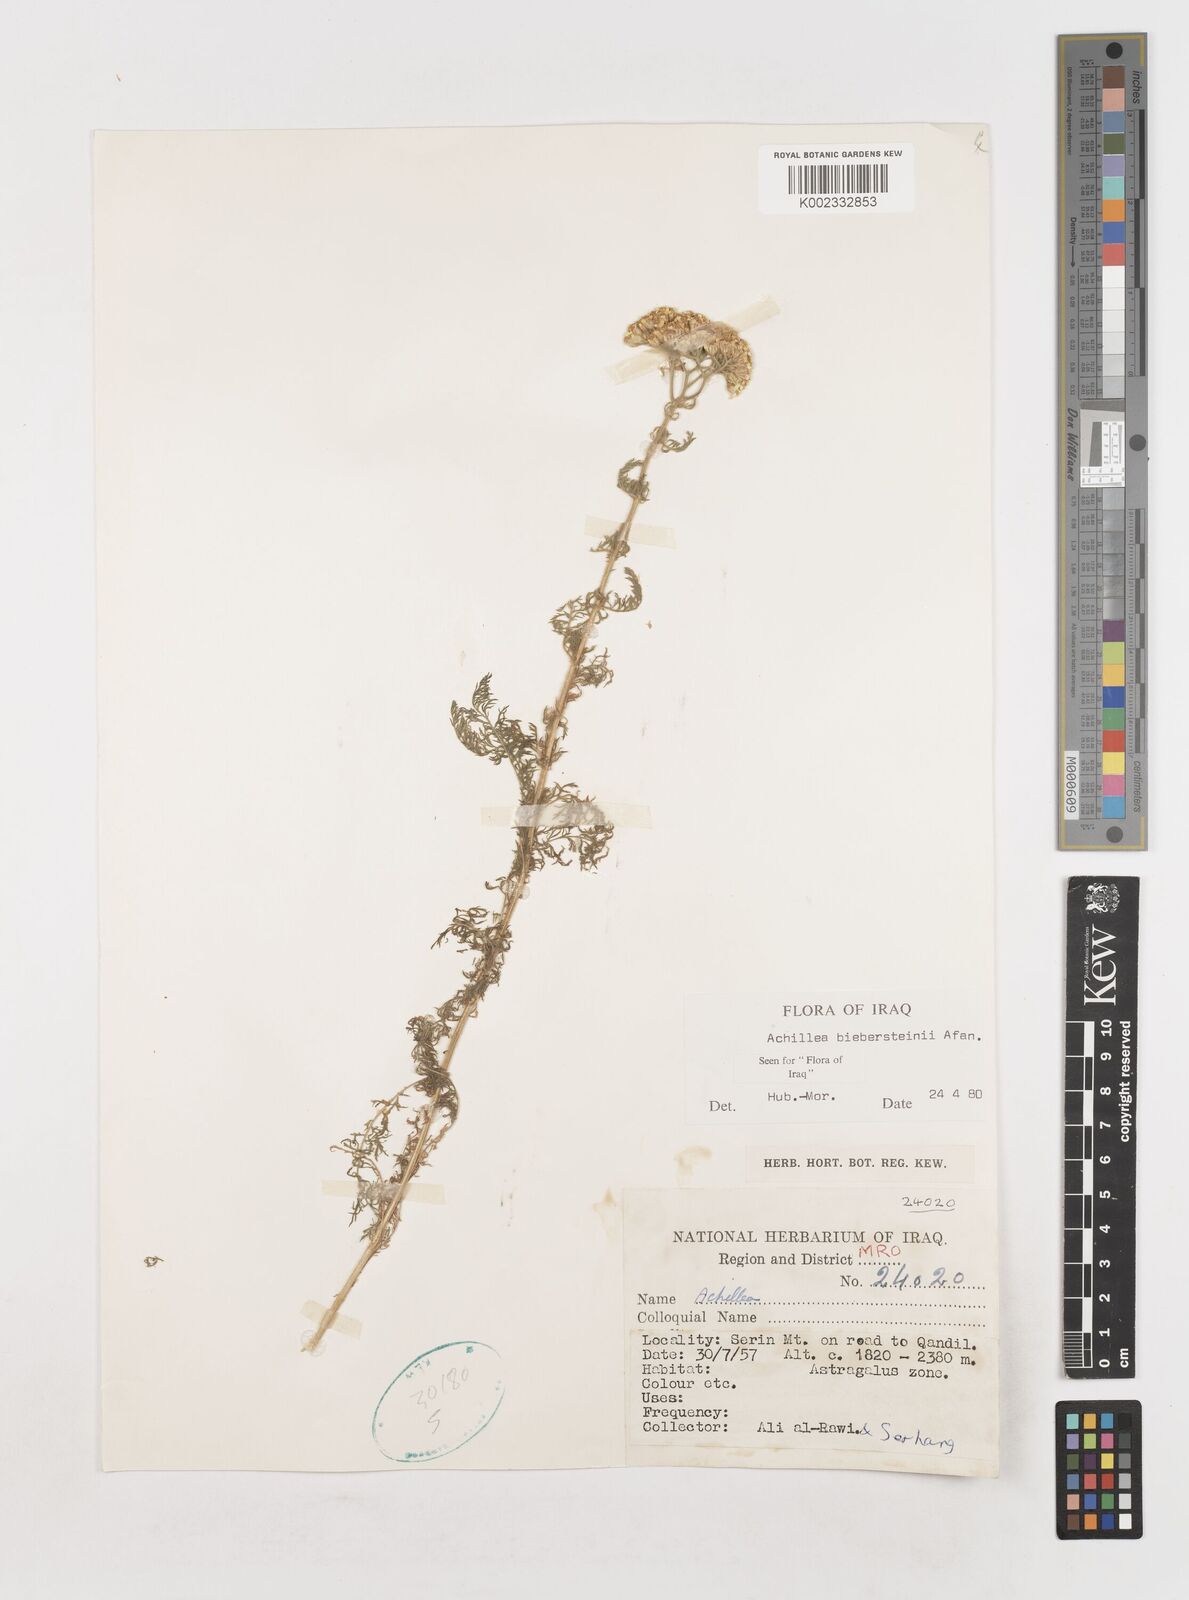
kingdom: Plantae
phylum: Tracheophyta
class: Magnoliopsida
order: Asterales
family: Asteraceae
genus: Achillea
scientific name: Achillea arabica
